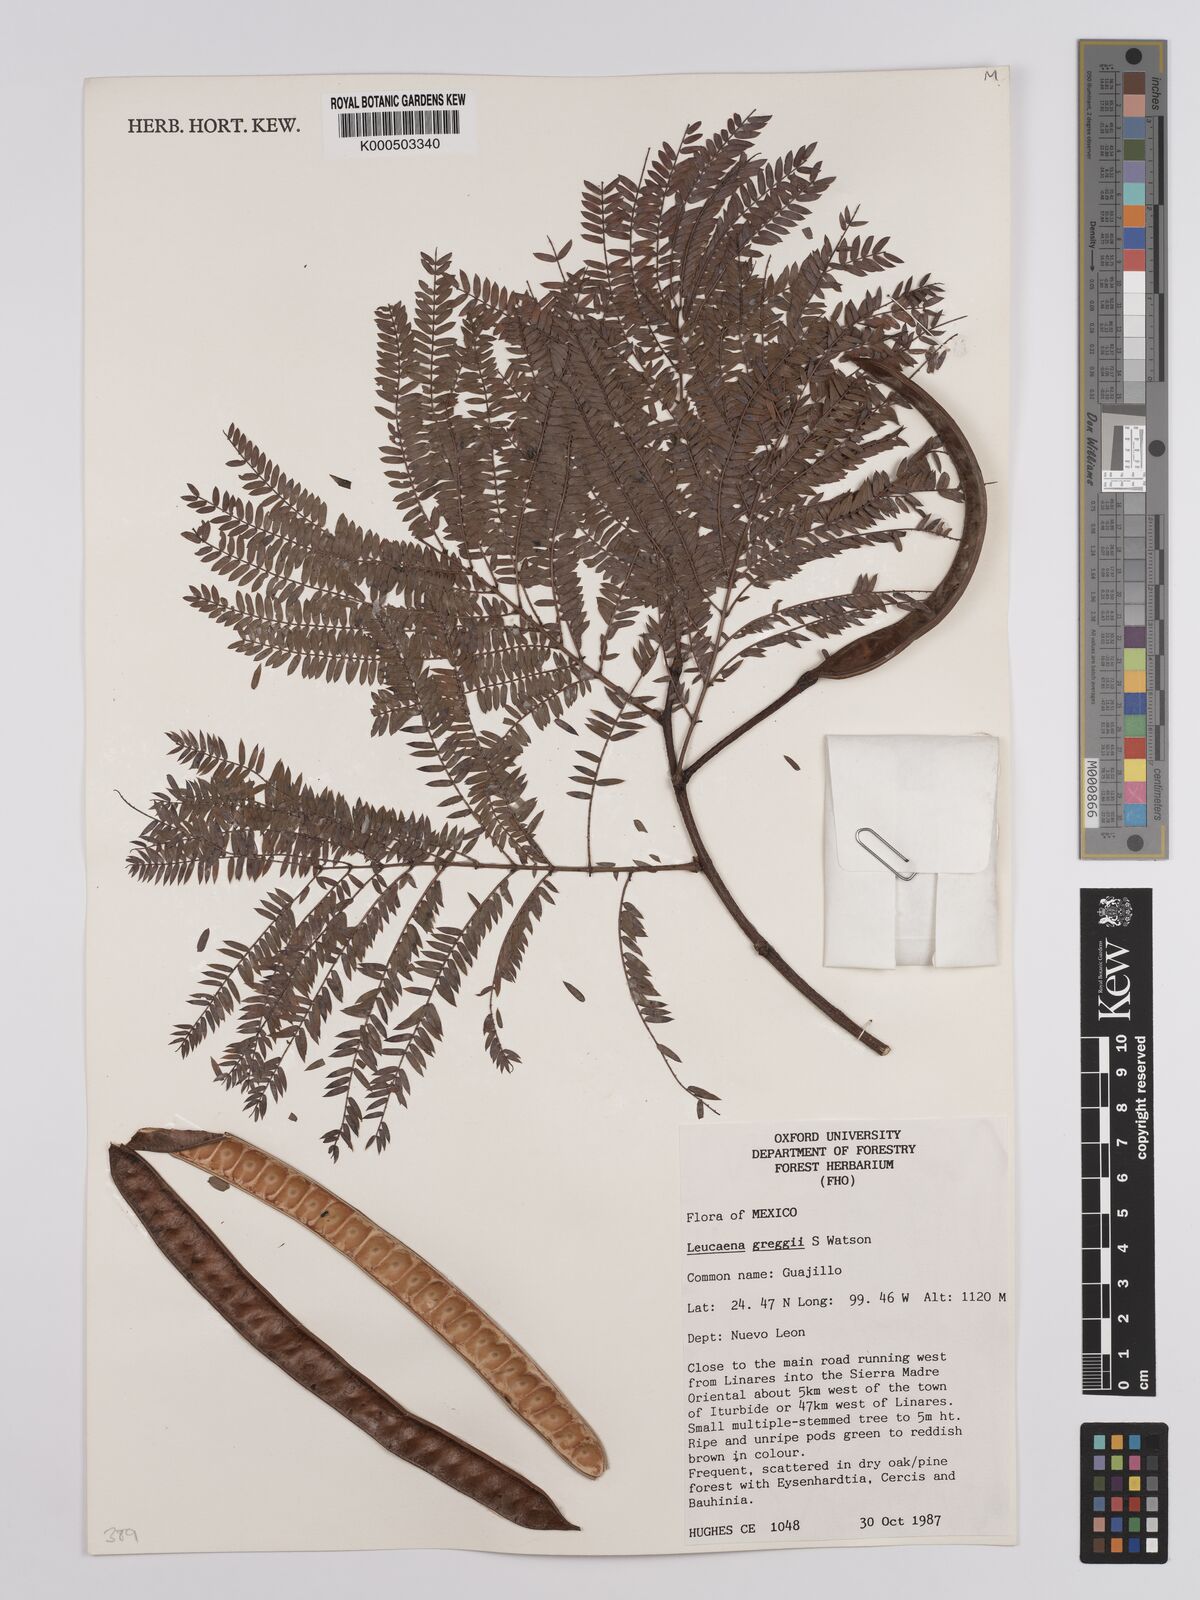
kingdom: Plantae
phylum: Tracheophyta
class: Magnoliopsida
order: Fabales
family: Fabaceae
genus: Leucaena
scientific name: Leucaena greggii
